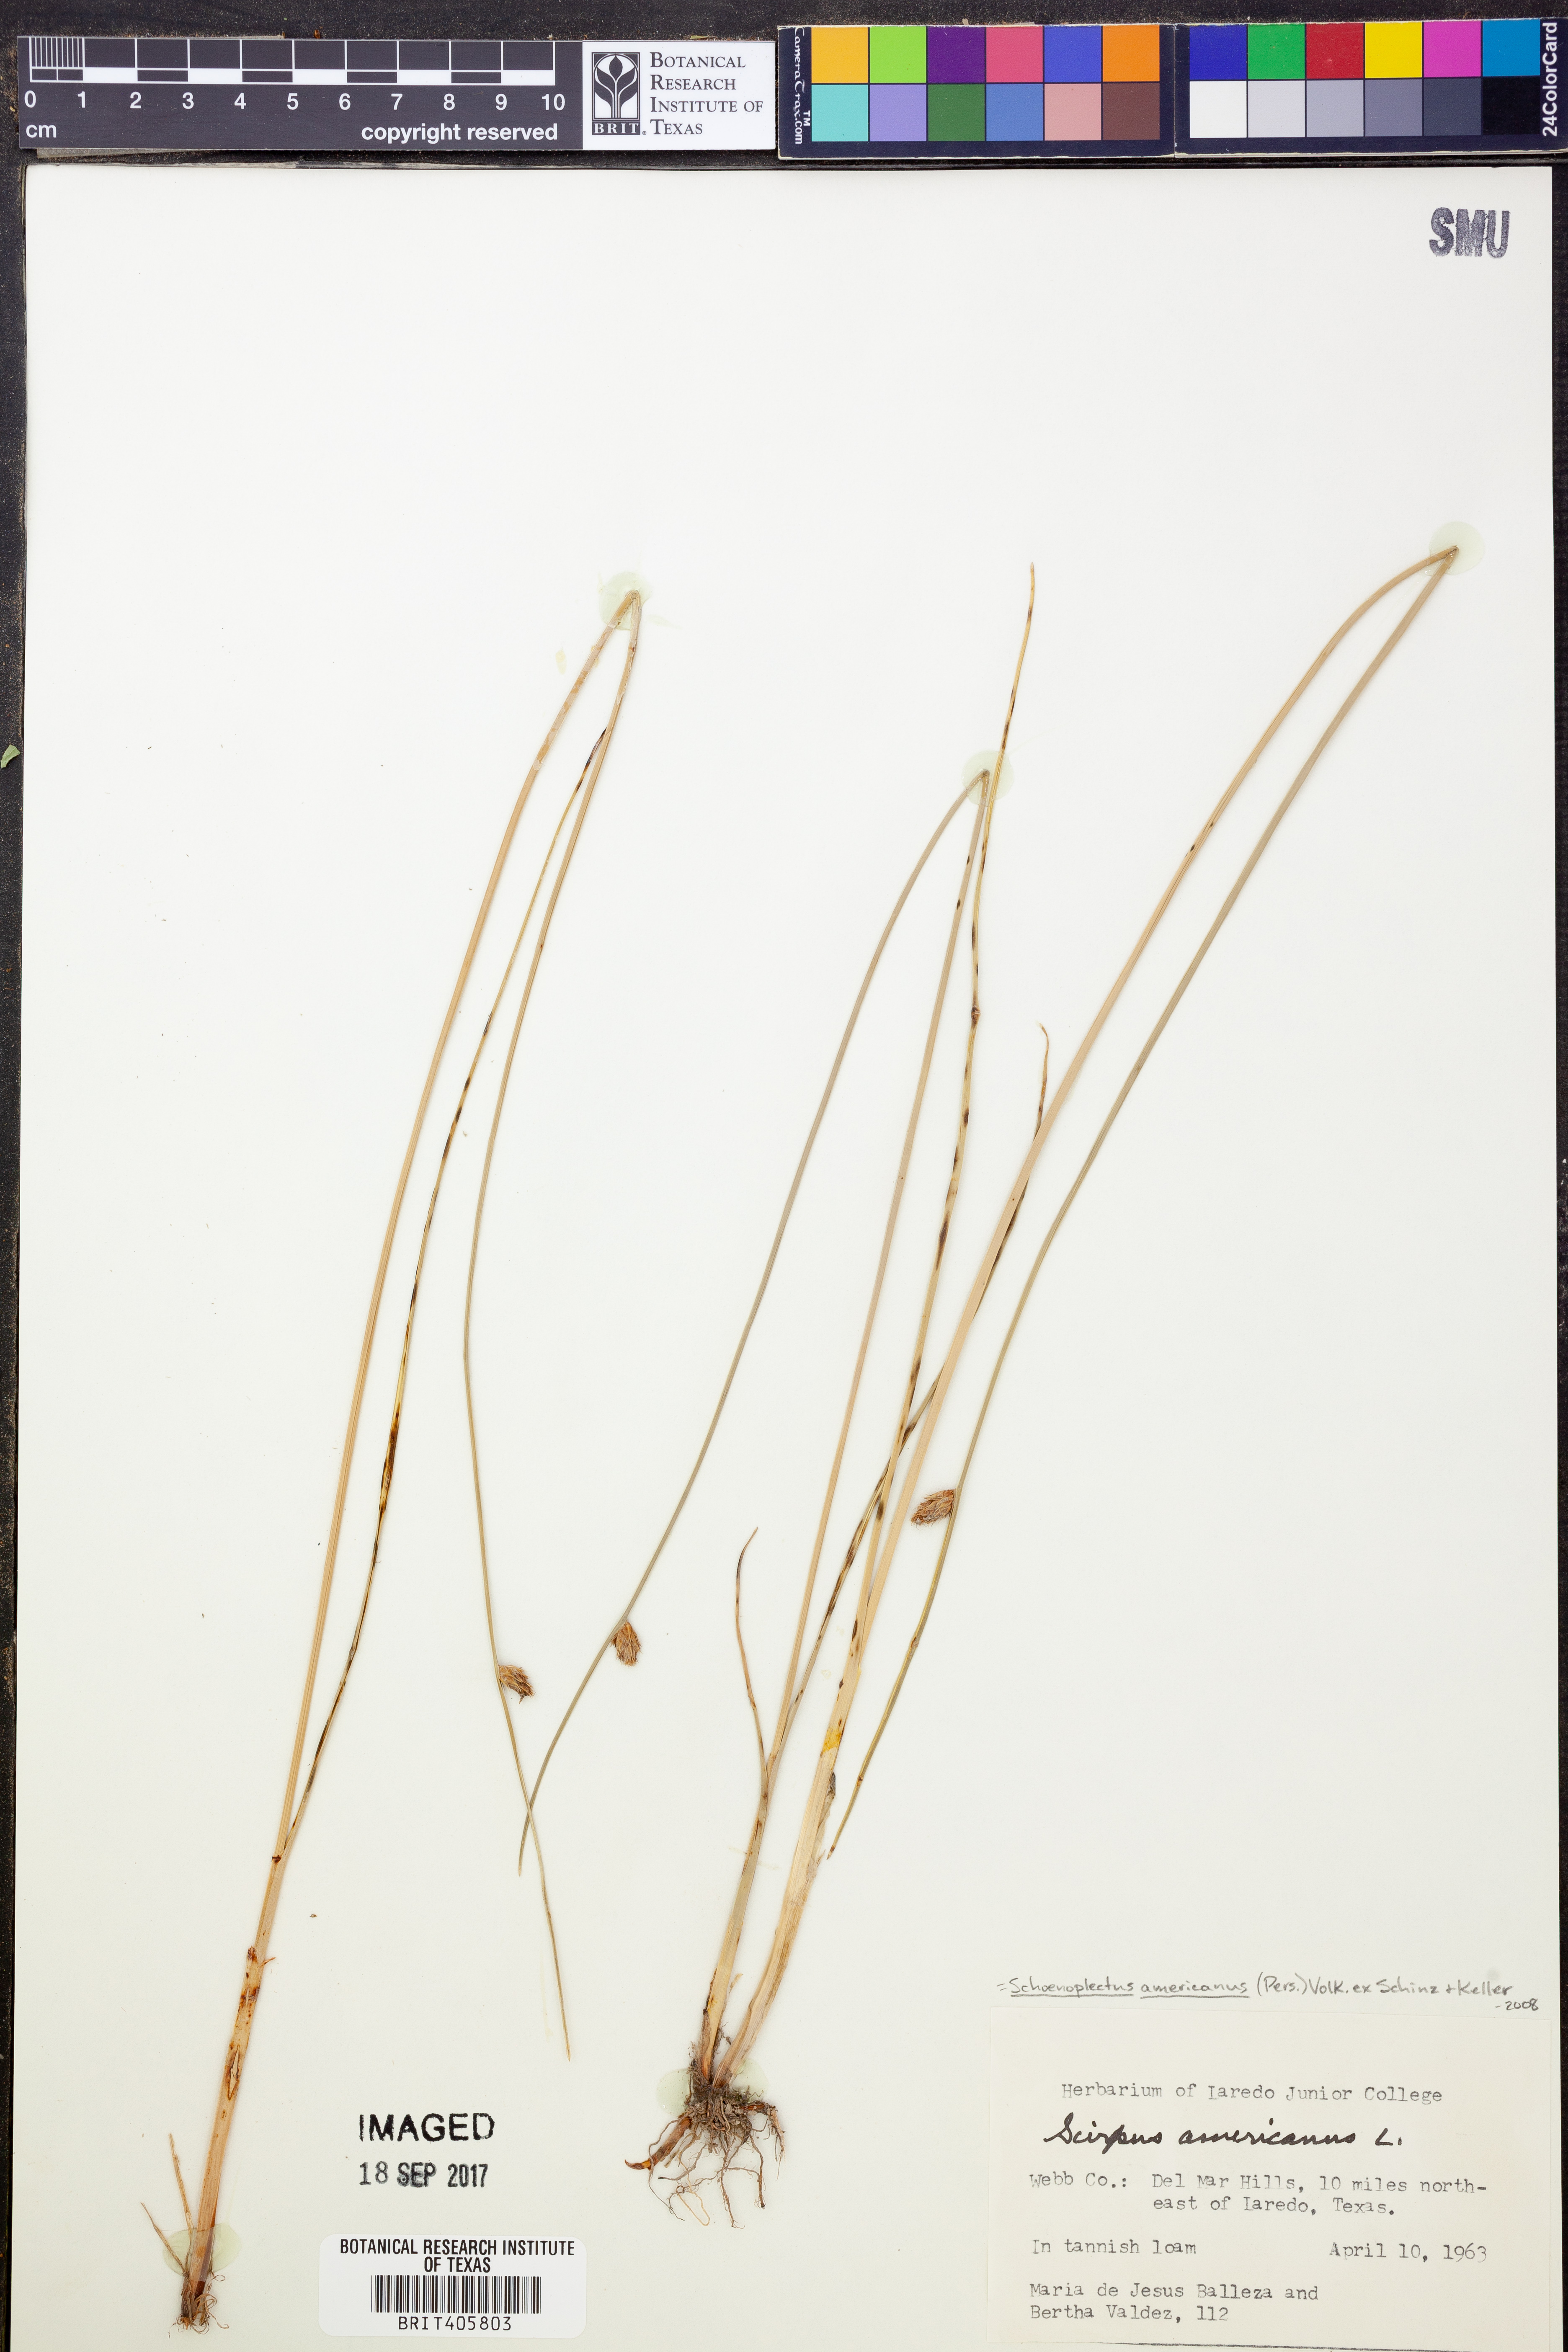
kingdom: Plantae
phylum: Tracheophyta
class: Liliopsida
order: Poales
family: Cyperaceae
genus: Schoenoplectus
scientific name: Schoenoplectus americanus
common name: American three-square bulrush
